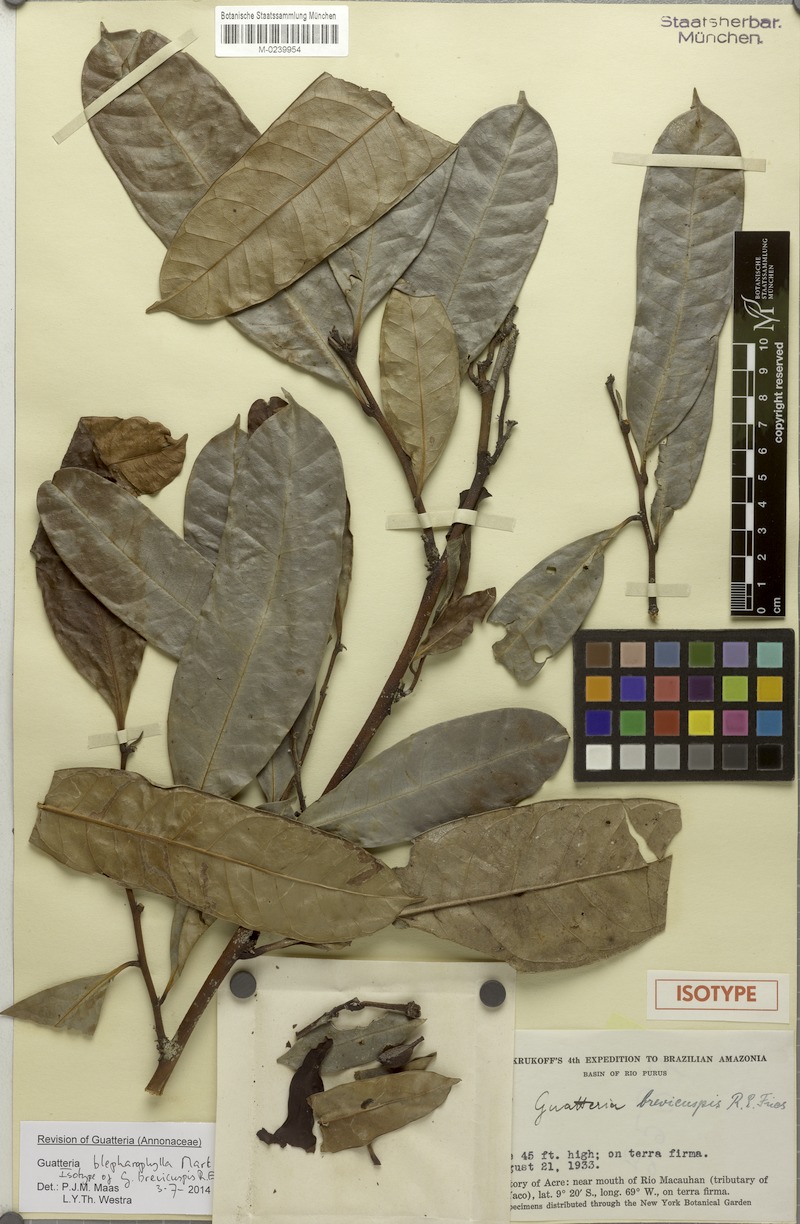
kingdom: Plantae
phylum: Tracheophyta
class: Magnoliopsida
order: Magnoliales
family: Annonaceae
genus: Guatteria
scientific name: Guatteria blepharophylla
